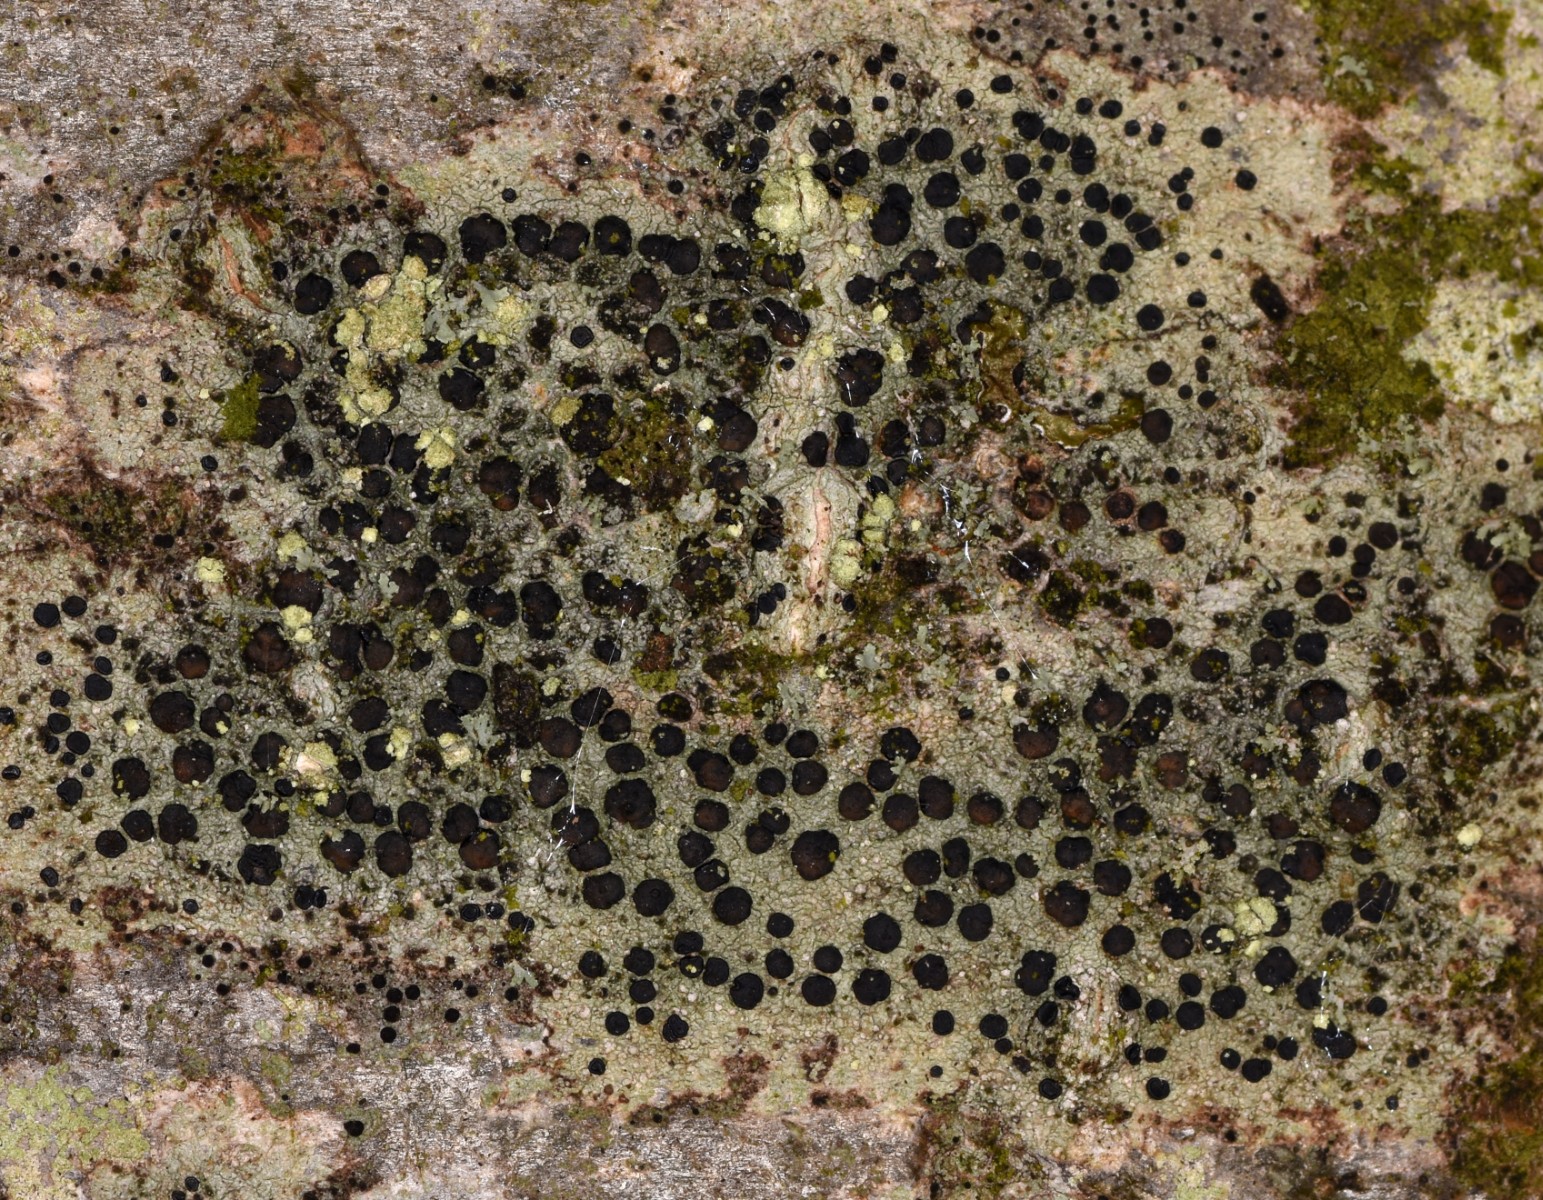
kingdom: Fungi
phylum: Ascomycota
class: Lecanoromycetes
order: Lecanorales
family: Lecanoraceae
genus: Lecidella
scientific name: Lecidella elaeochroma
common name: grågrøn skivelav
